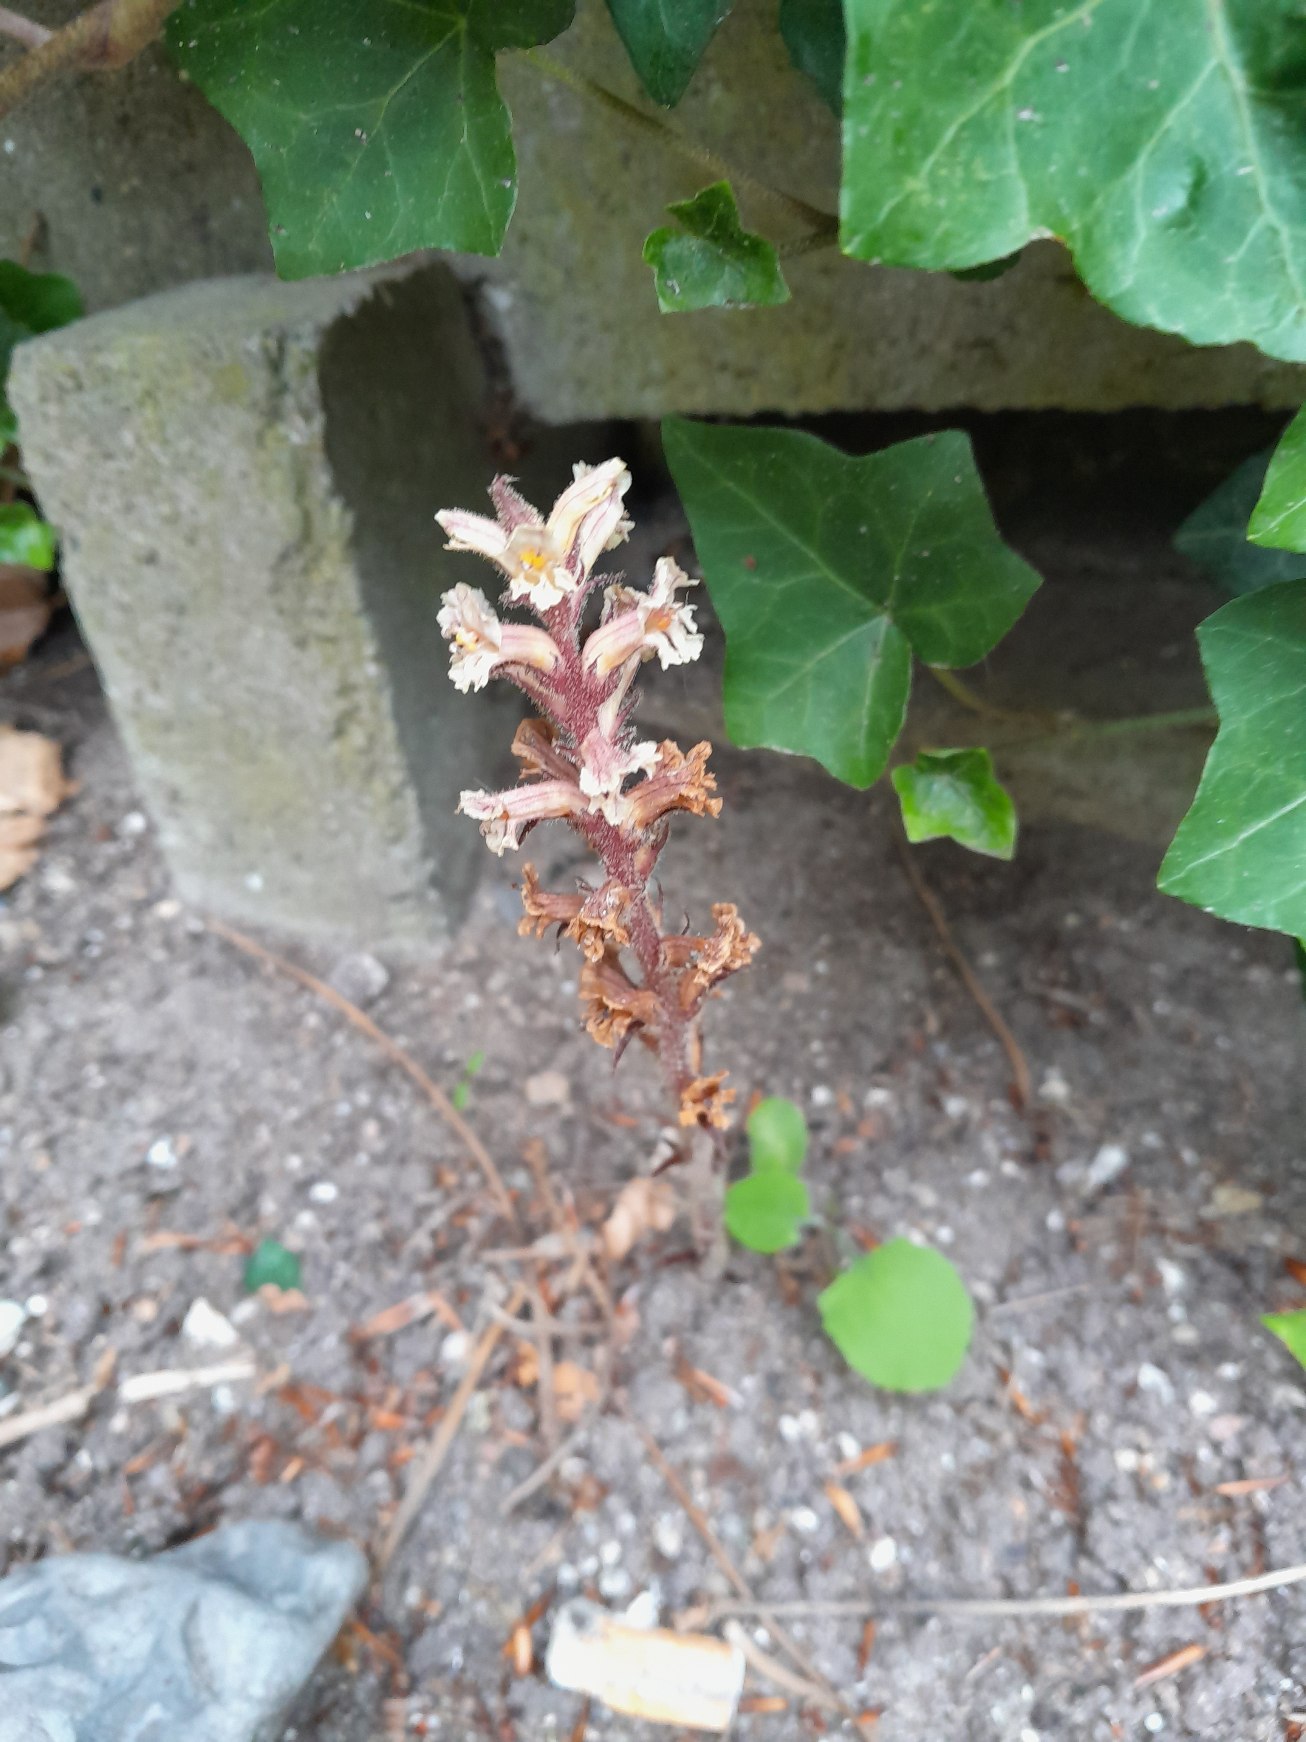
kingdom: Plantae
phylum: Tracheophyta
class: Magnoliopsida
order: Lamiales
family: Orobanchaceae
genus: Orobanche
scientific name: Orobanche hederae
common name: Vedbend-gyvelkvæler
